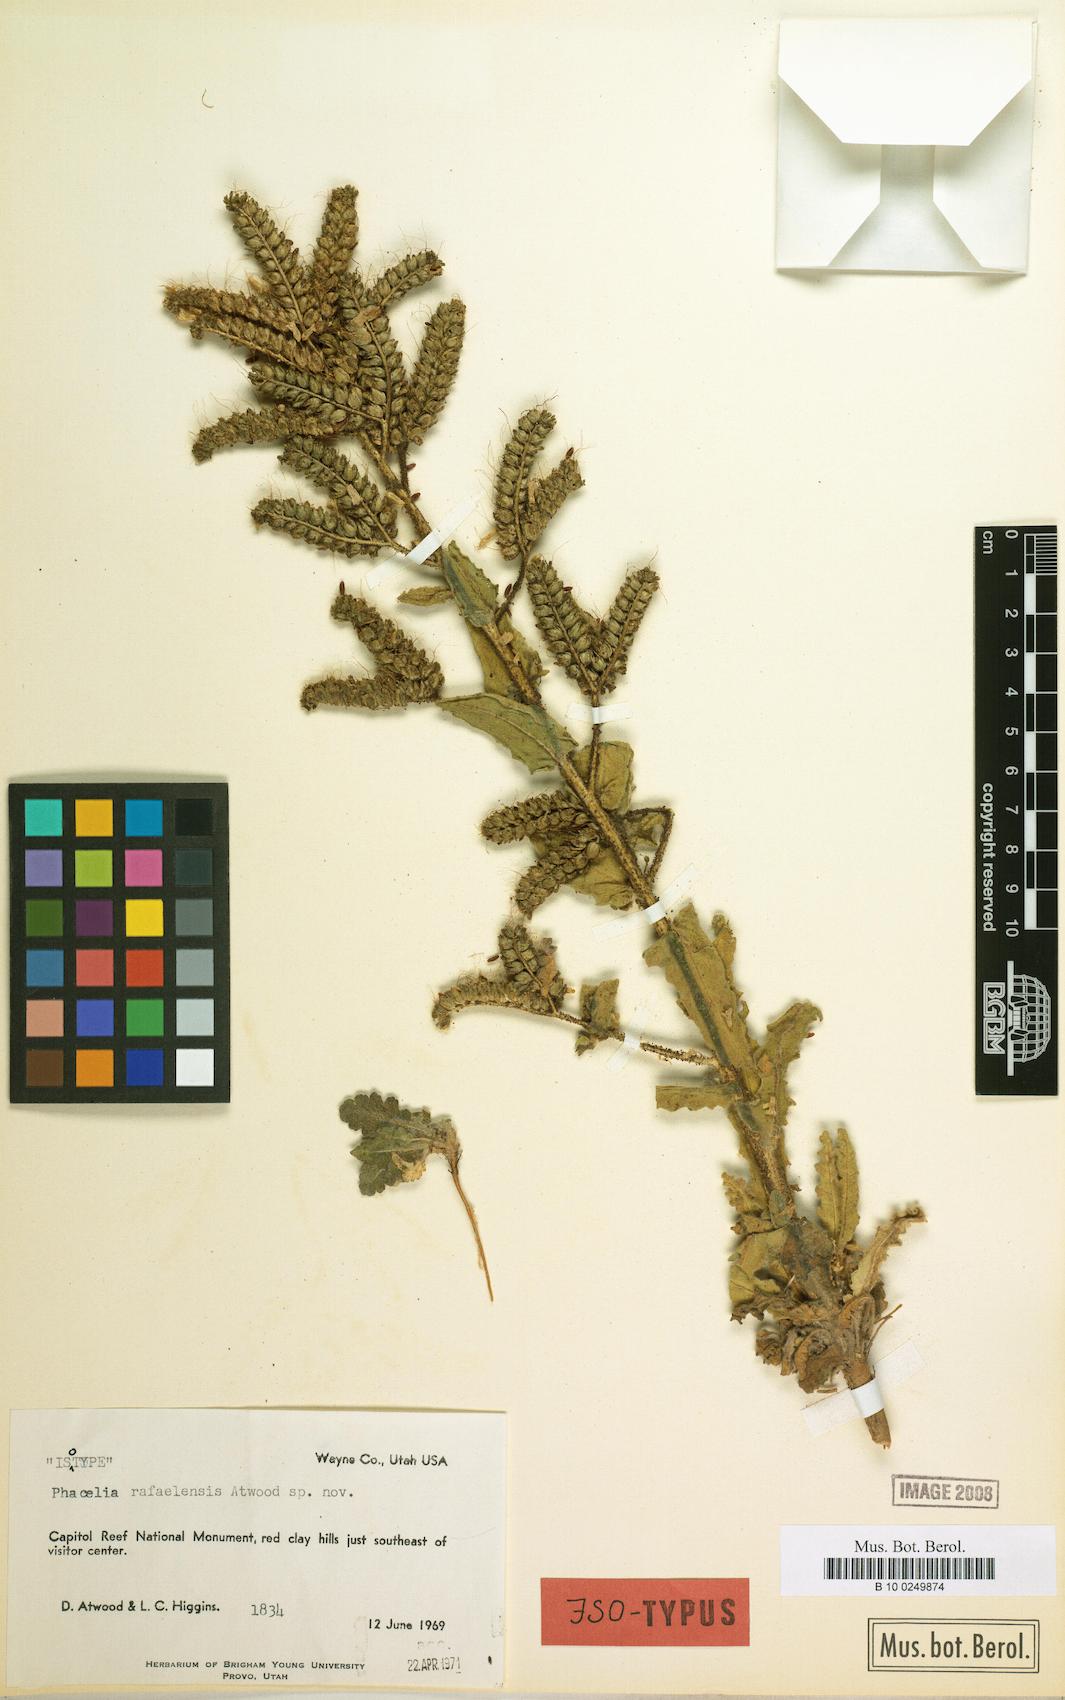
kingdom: Plantae
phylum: Tracheophyta
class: Magnoliopsida
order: Boraginales
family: Hydrophyllaceae
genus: Phacelia
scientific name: Phacelia rafaelensis
